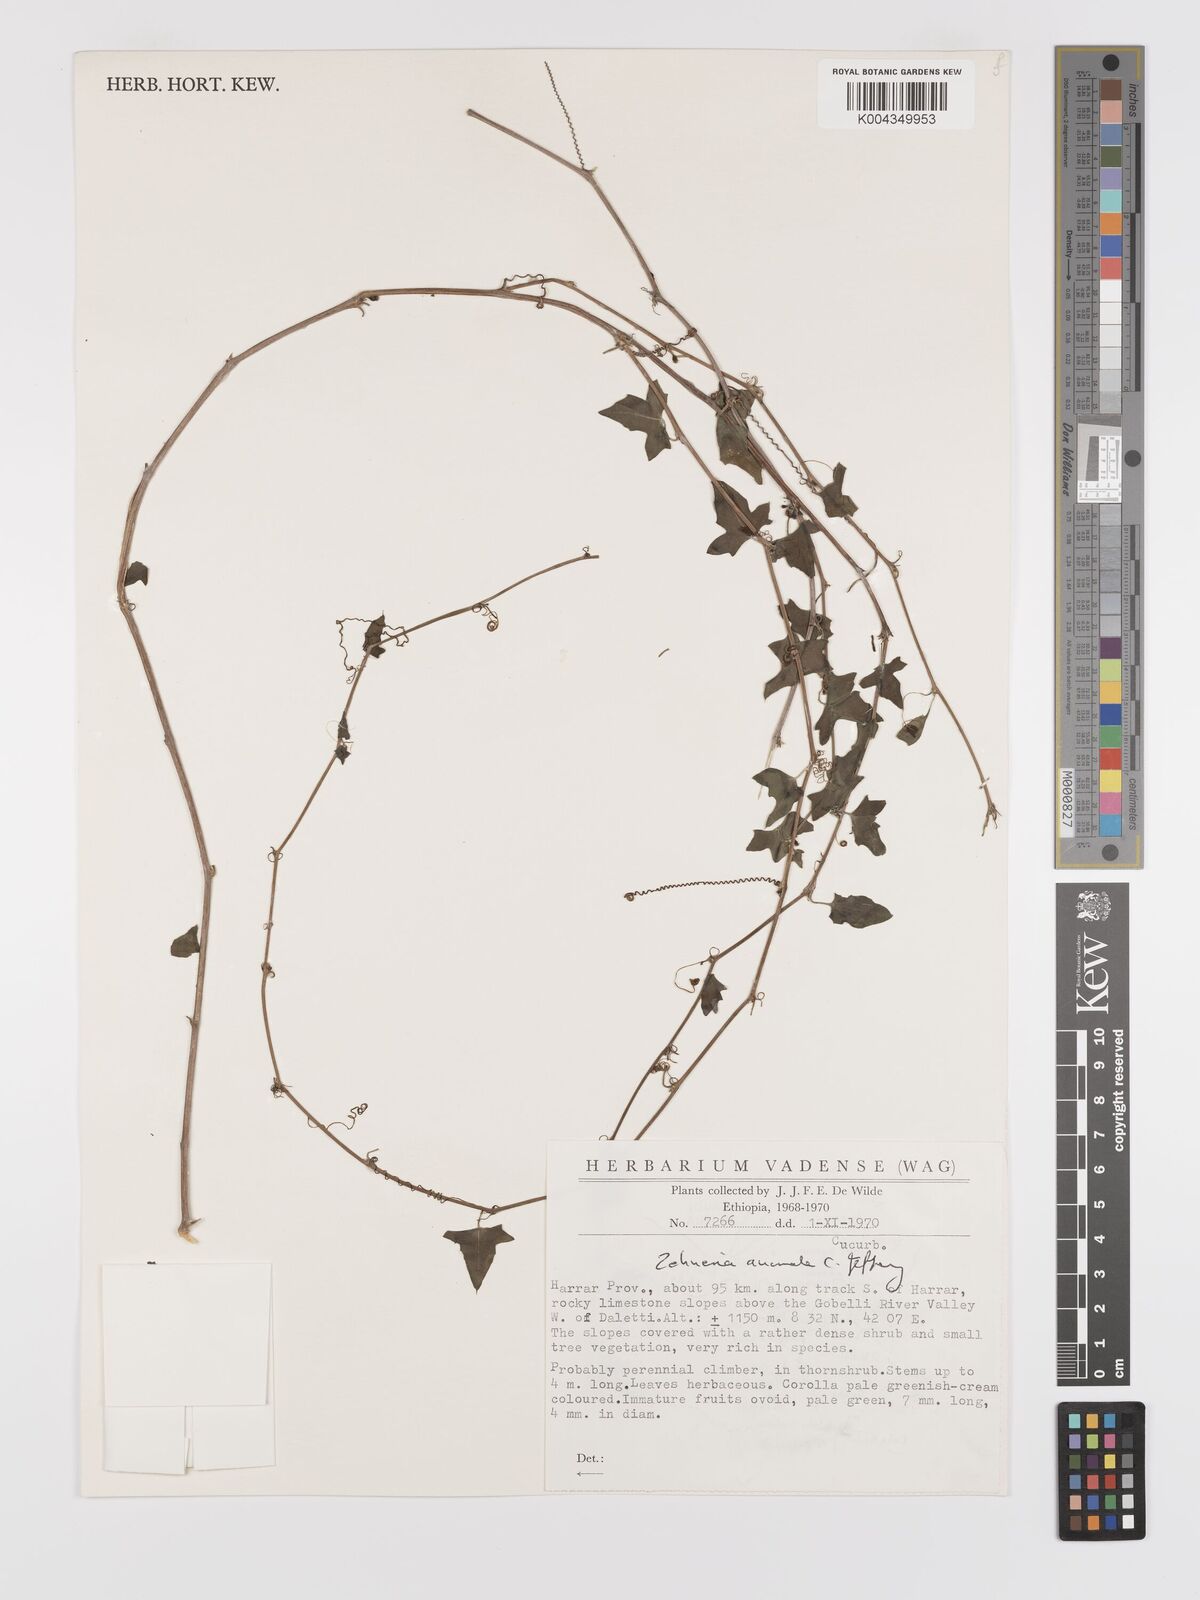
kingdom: Plantae
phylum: Tracheophyta
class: Magnoliopsida
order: Cucurbitales
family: Cucurbitaceae
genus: Zehneria
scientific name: Zehneria anomala
